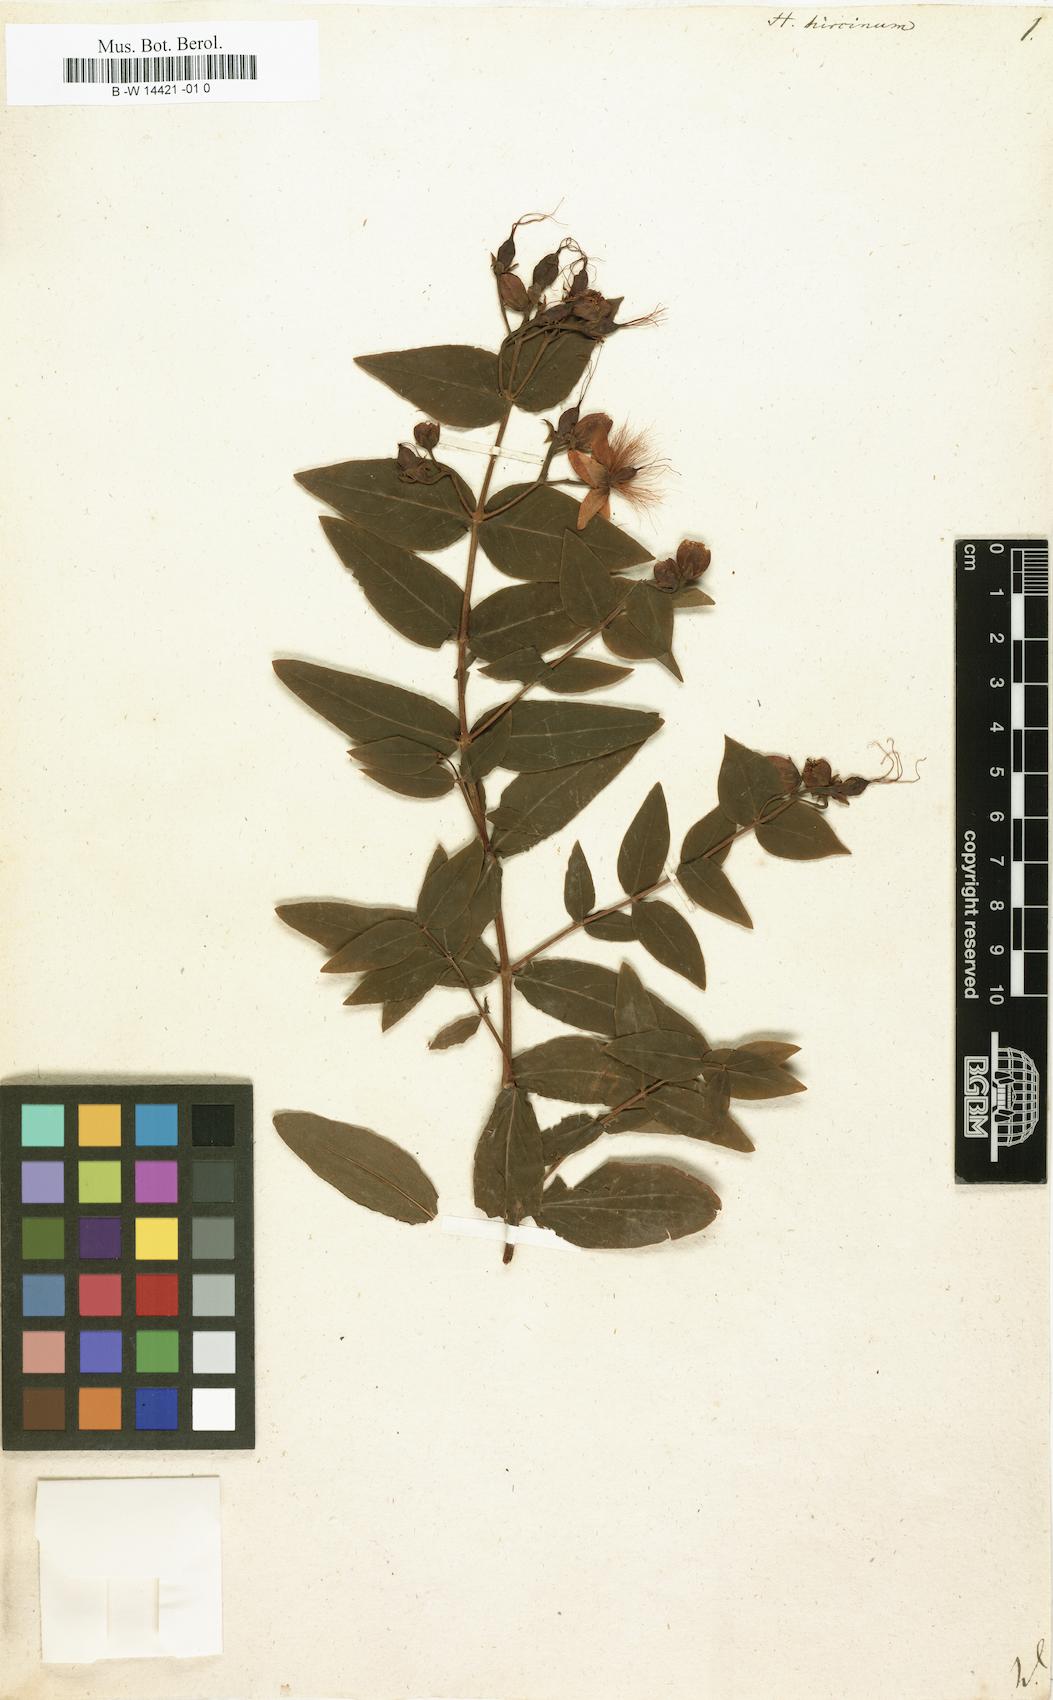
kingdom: Plantae
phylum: Tracheophyta
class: Magnoliopsida
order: Malpighiales
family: Hypericaceae
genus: Hypericum
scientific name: Hypericum hircinum
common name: Stinking tutsan
